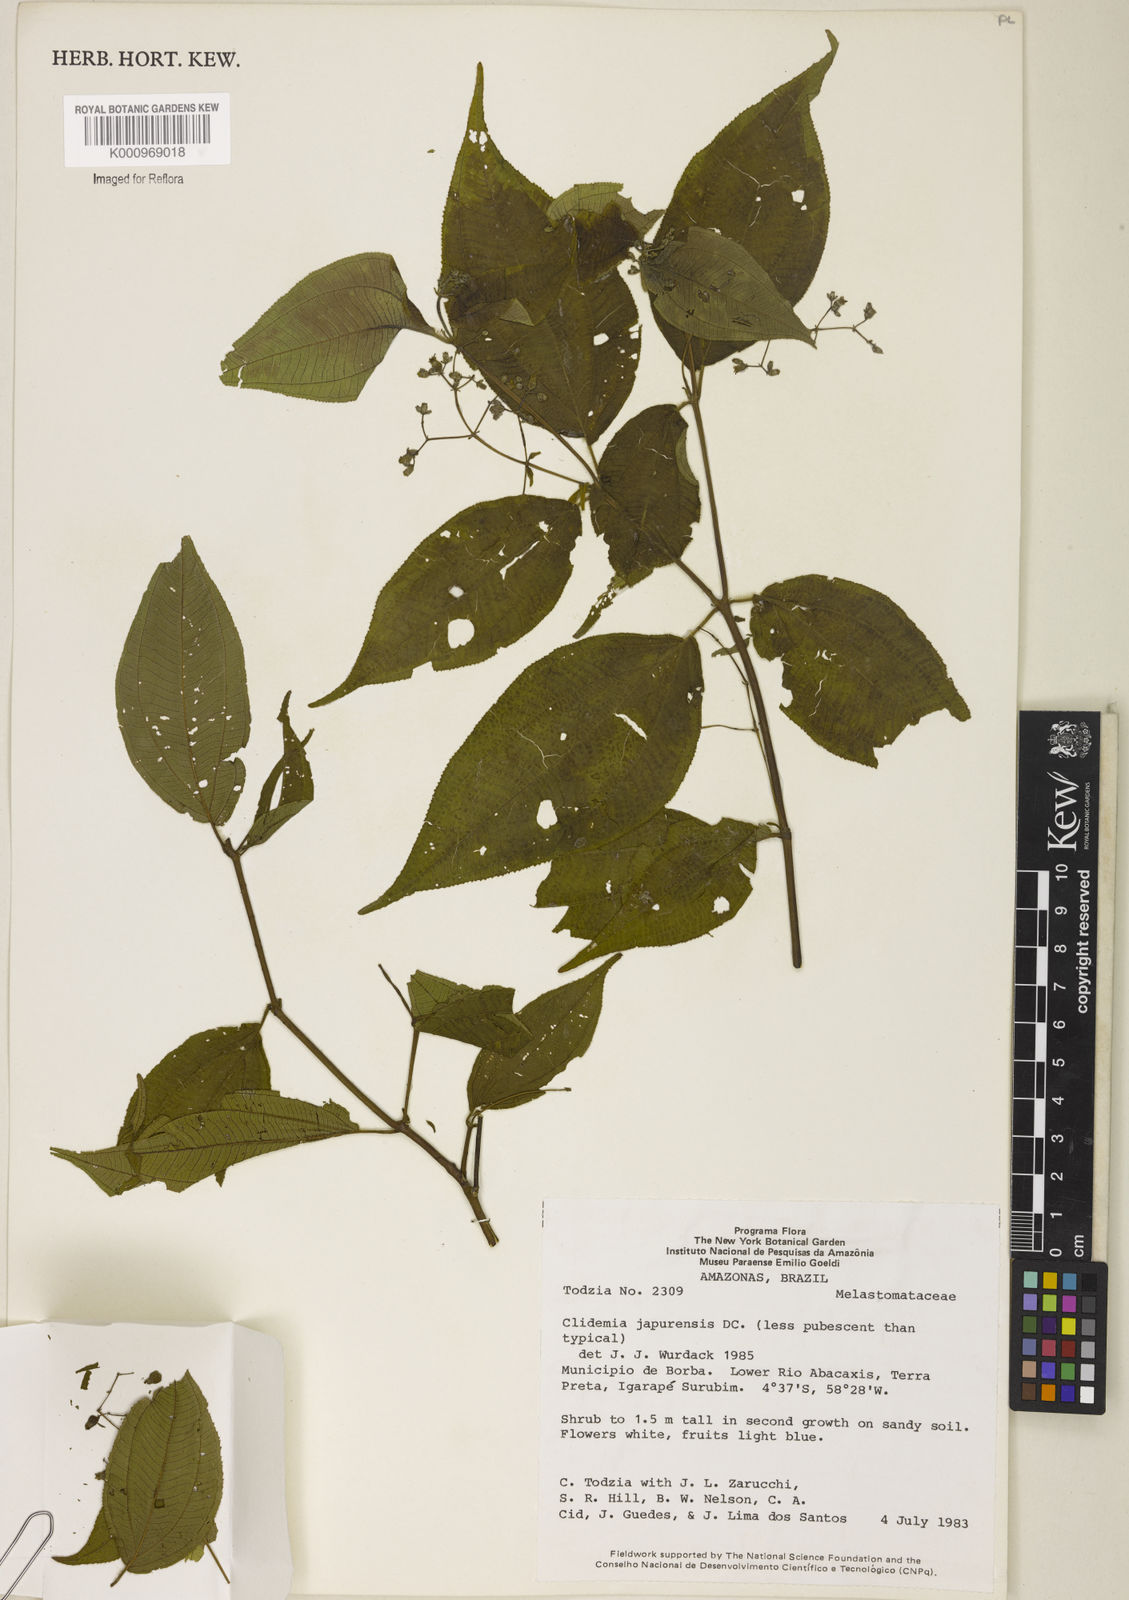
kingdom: Plantae
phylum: Tracheophyta
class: Magnoliopsida
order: Myrtales
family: Melastomataceae
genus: Miconia
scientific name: Miconia heteroclita
